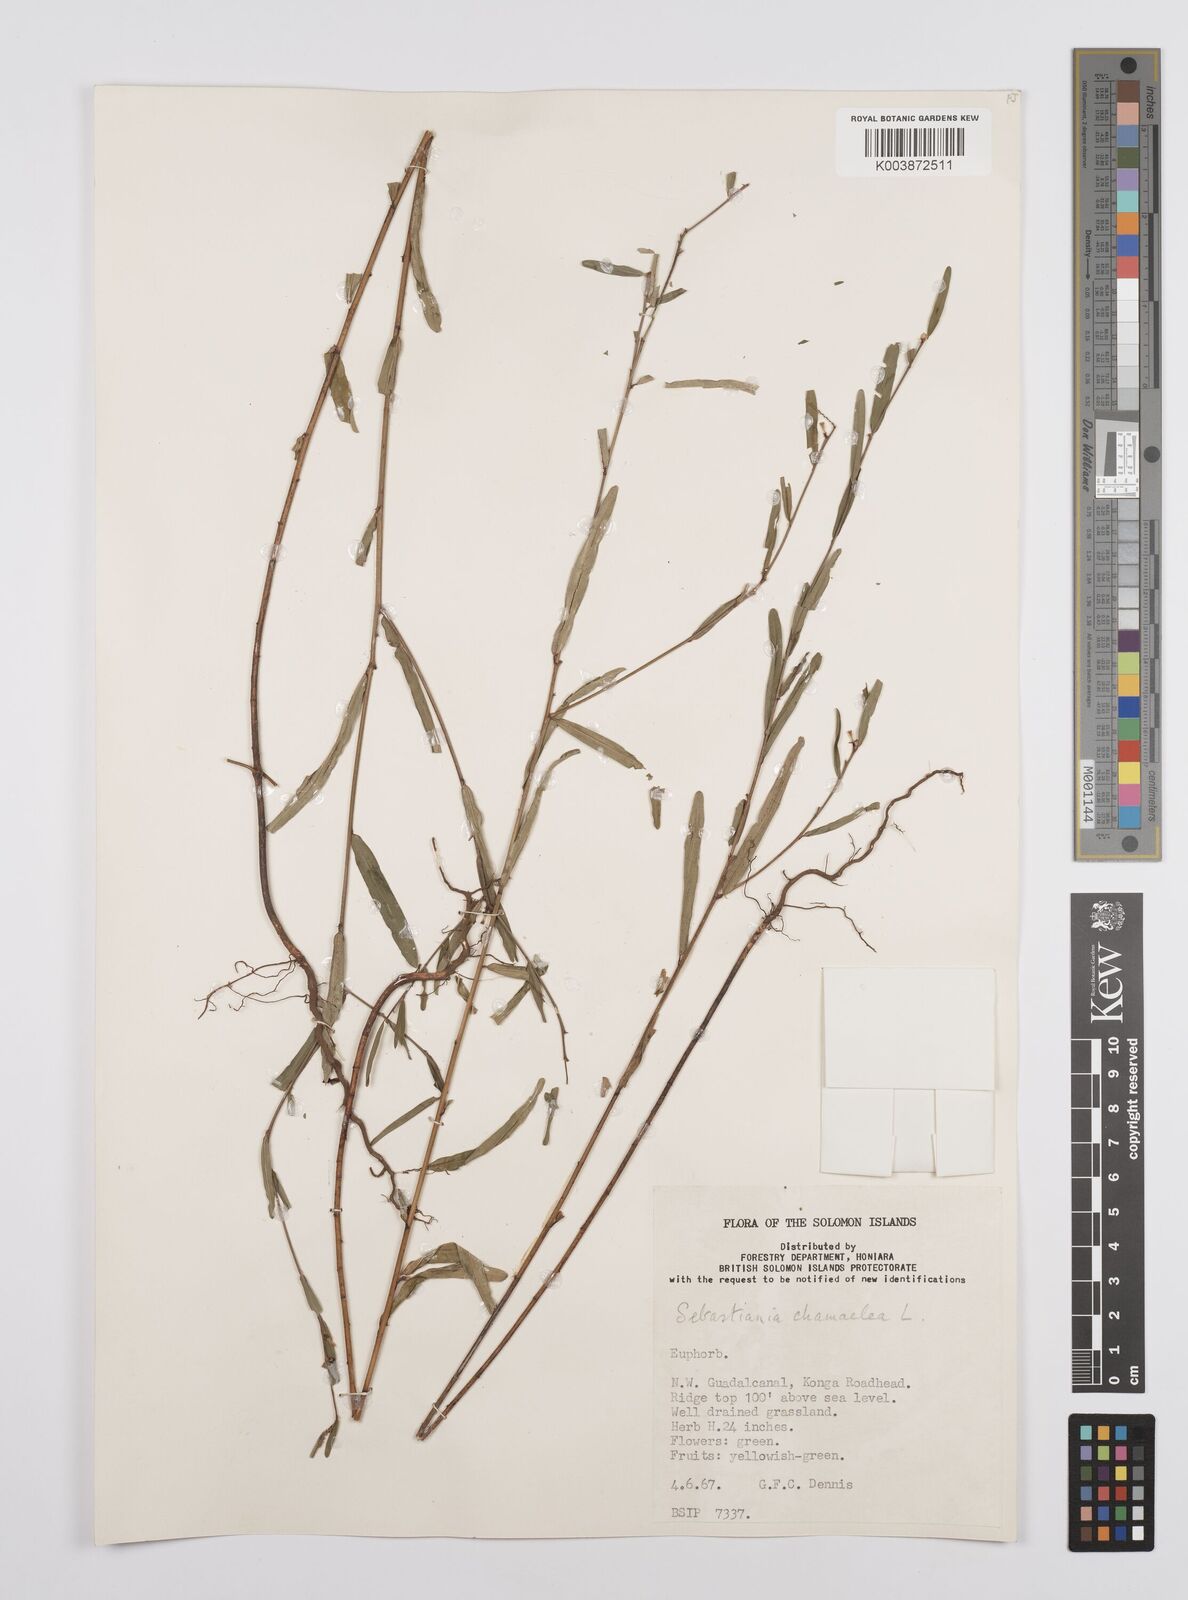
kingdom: Plantae
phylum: Tracheophyta
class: Magnoliopsida
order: Malpighiales
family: Euphorbiaceae
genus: Microstachys
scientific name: Microstachys chamaelea
